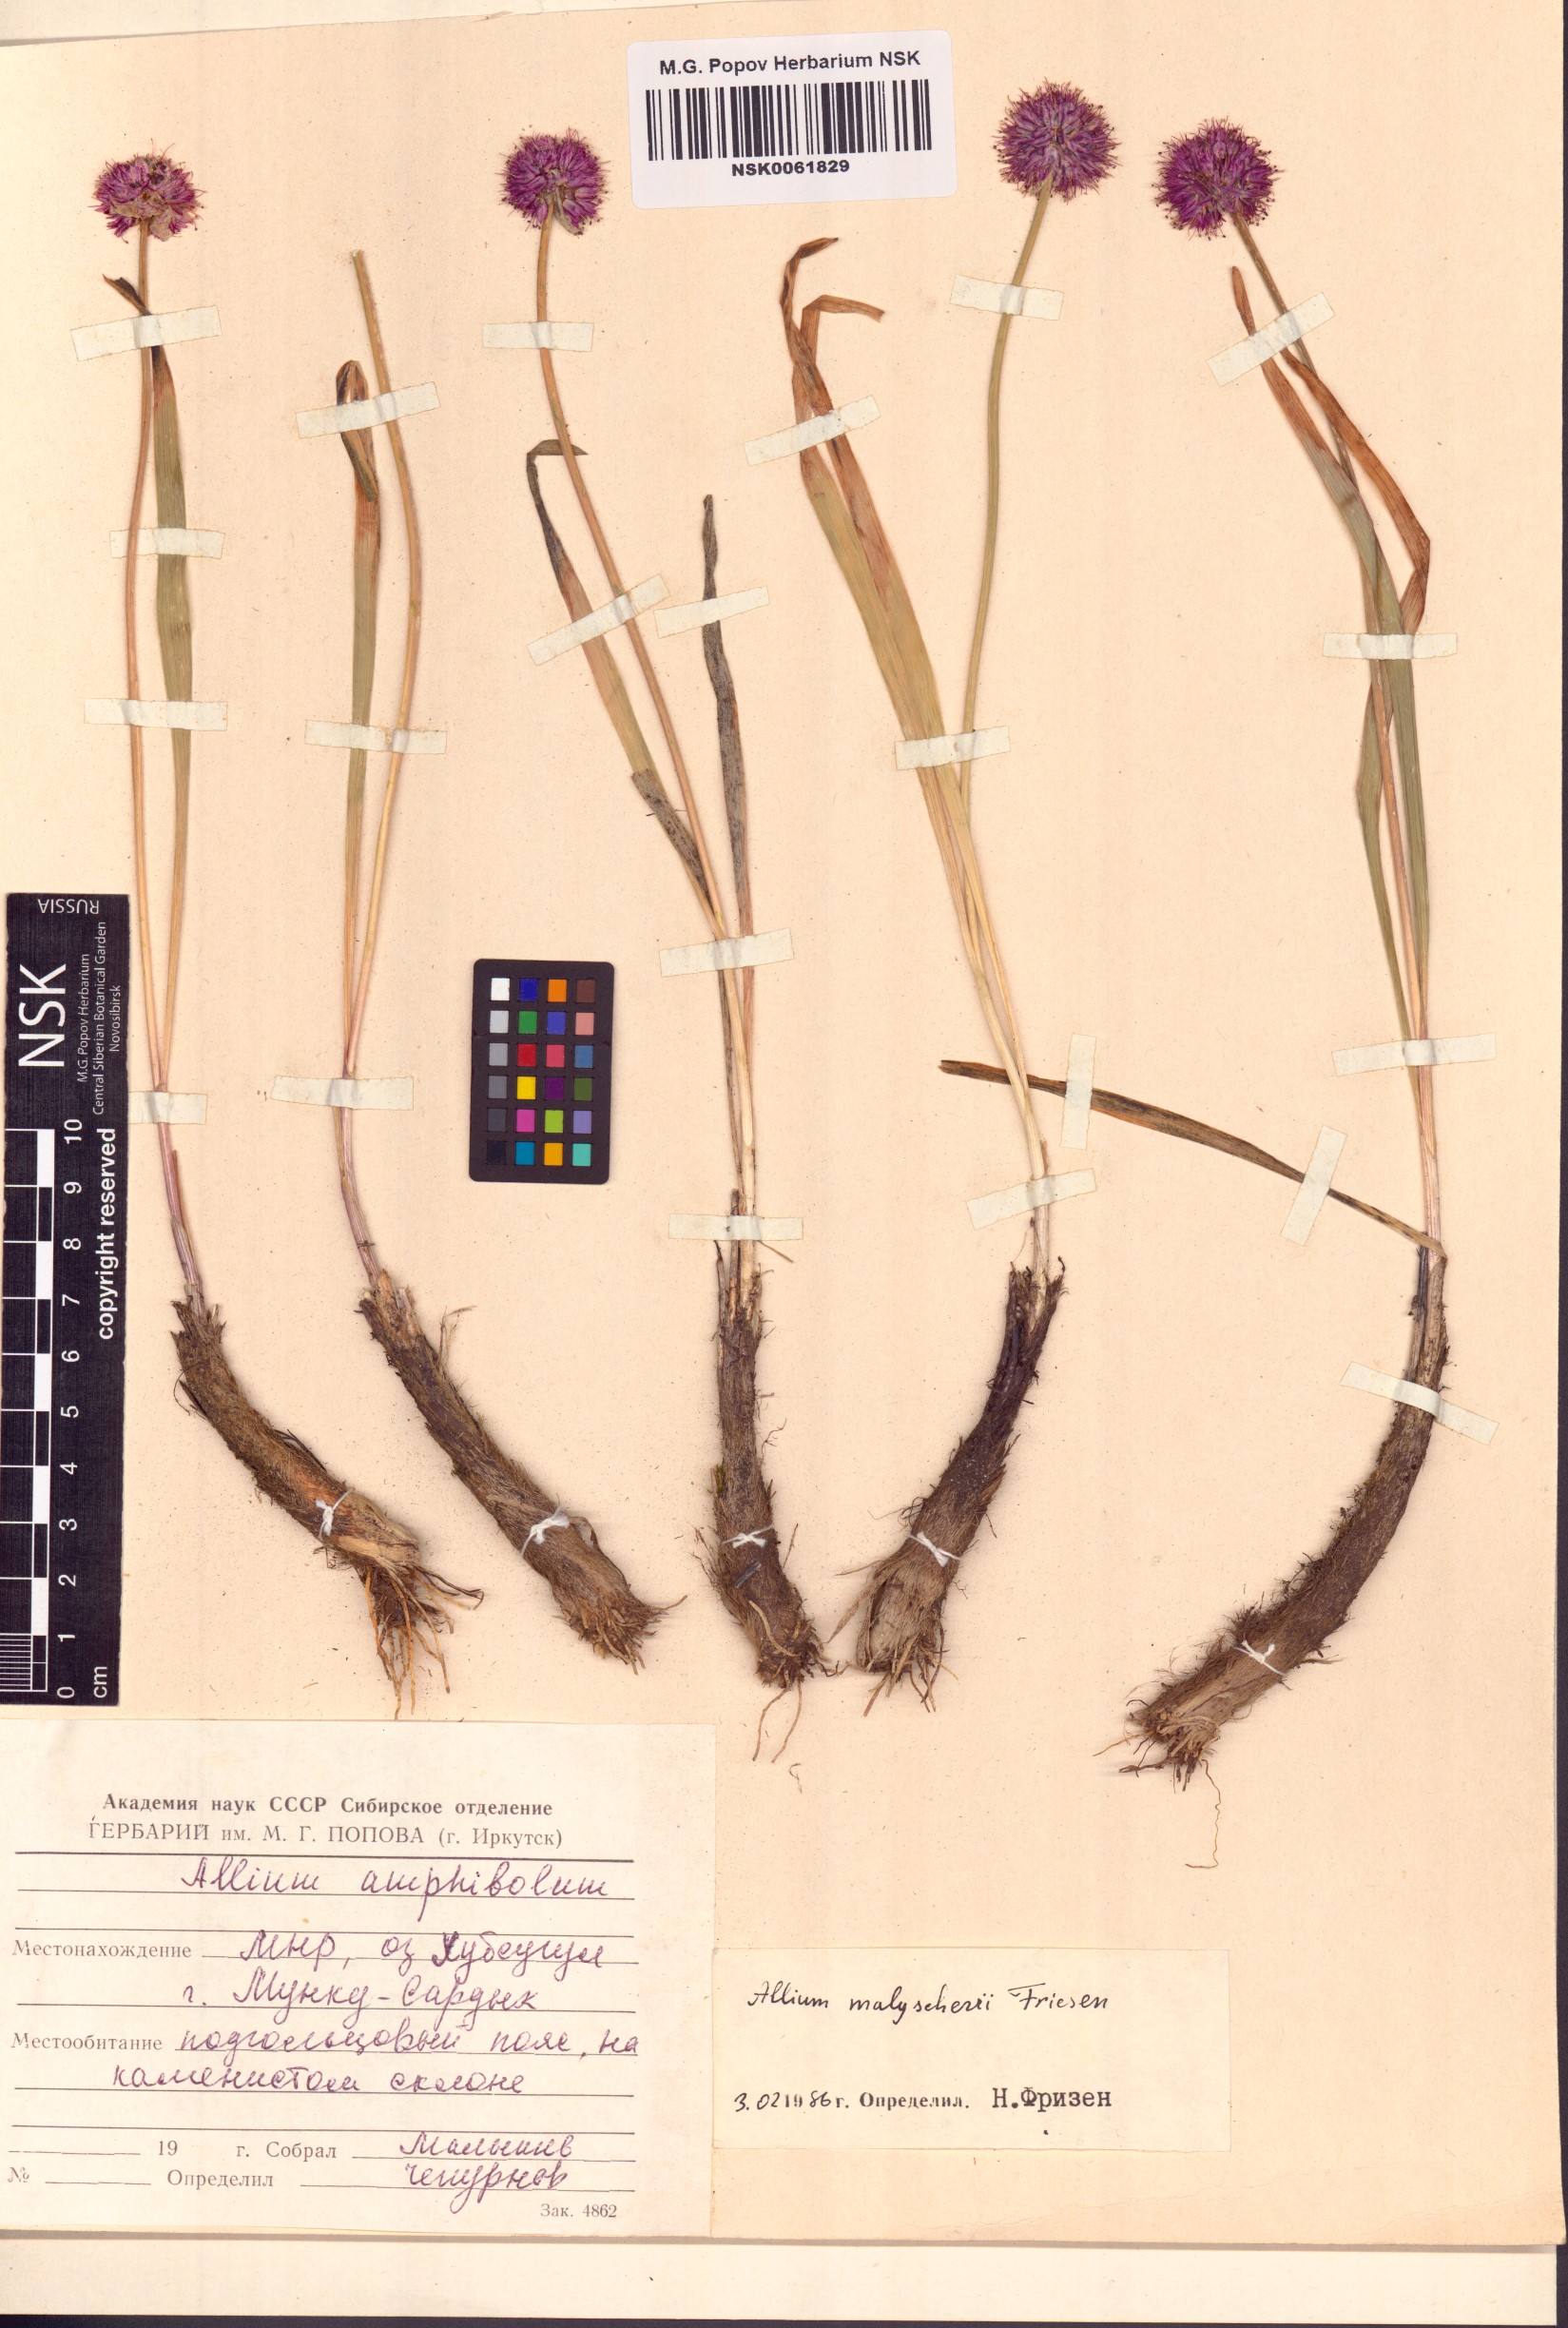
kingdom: Plantae
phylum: Tracheophyta
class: Liliopsida
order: Asparagales
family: Amaryllidaceae
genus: Allium
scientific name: Allium malyschevii
